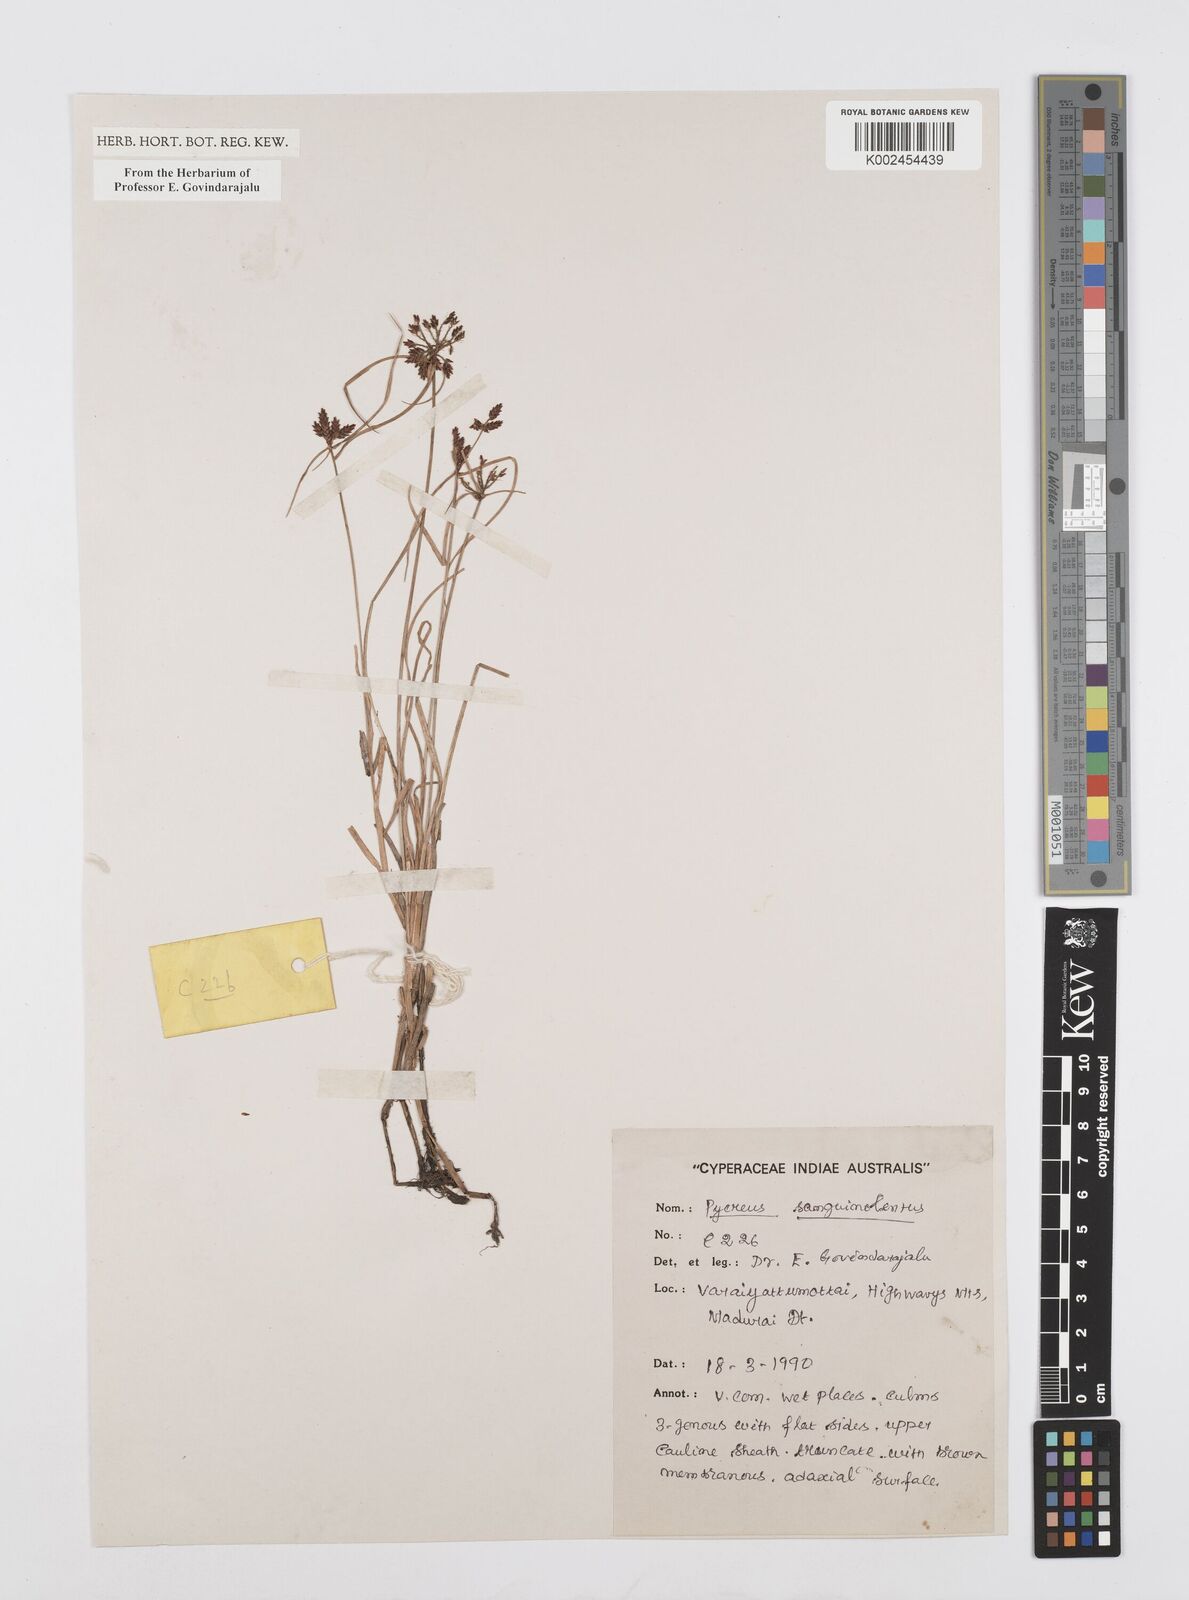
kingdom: Plantae
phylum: Tracheophyta
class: Liliopsida
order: Poales
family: Cyperaceae
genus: Cyperus
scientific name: Cyperus sanguinolentus
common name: Purpleglume flatsedge
